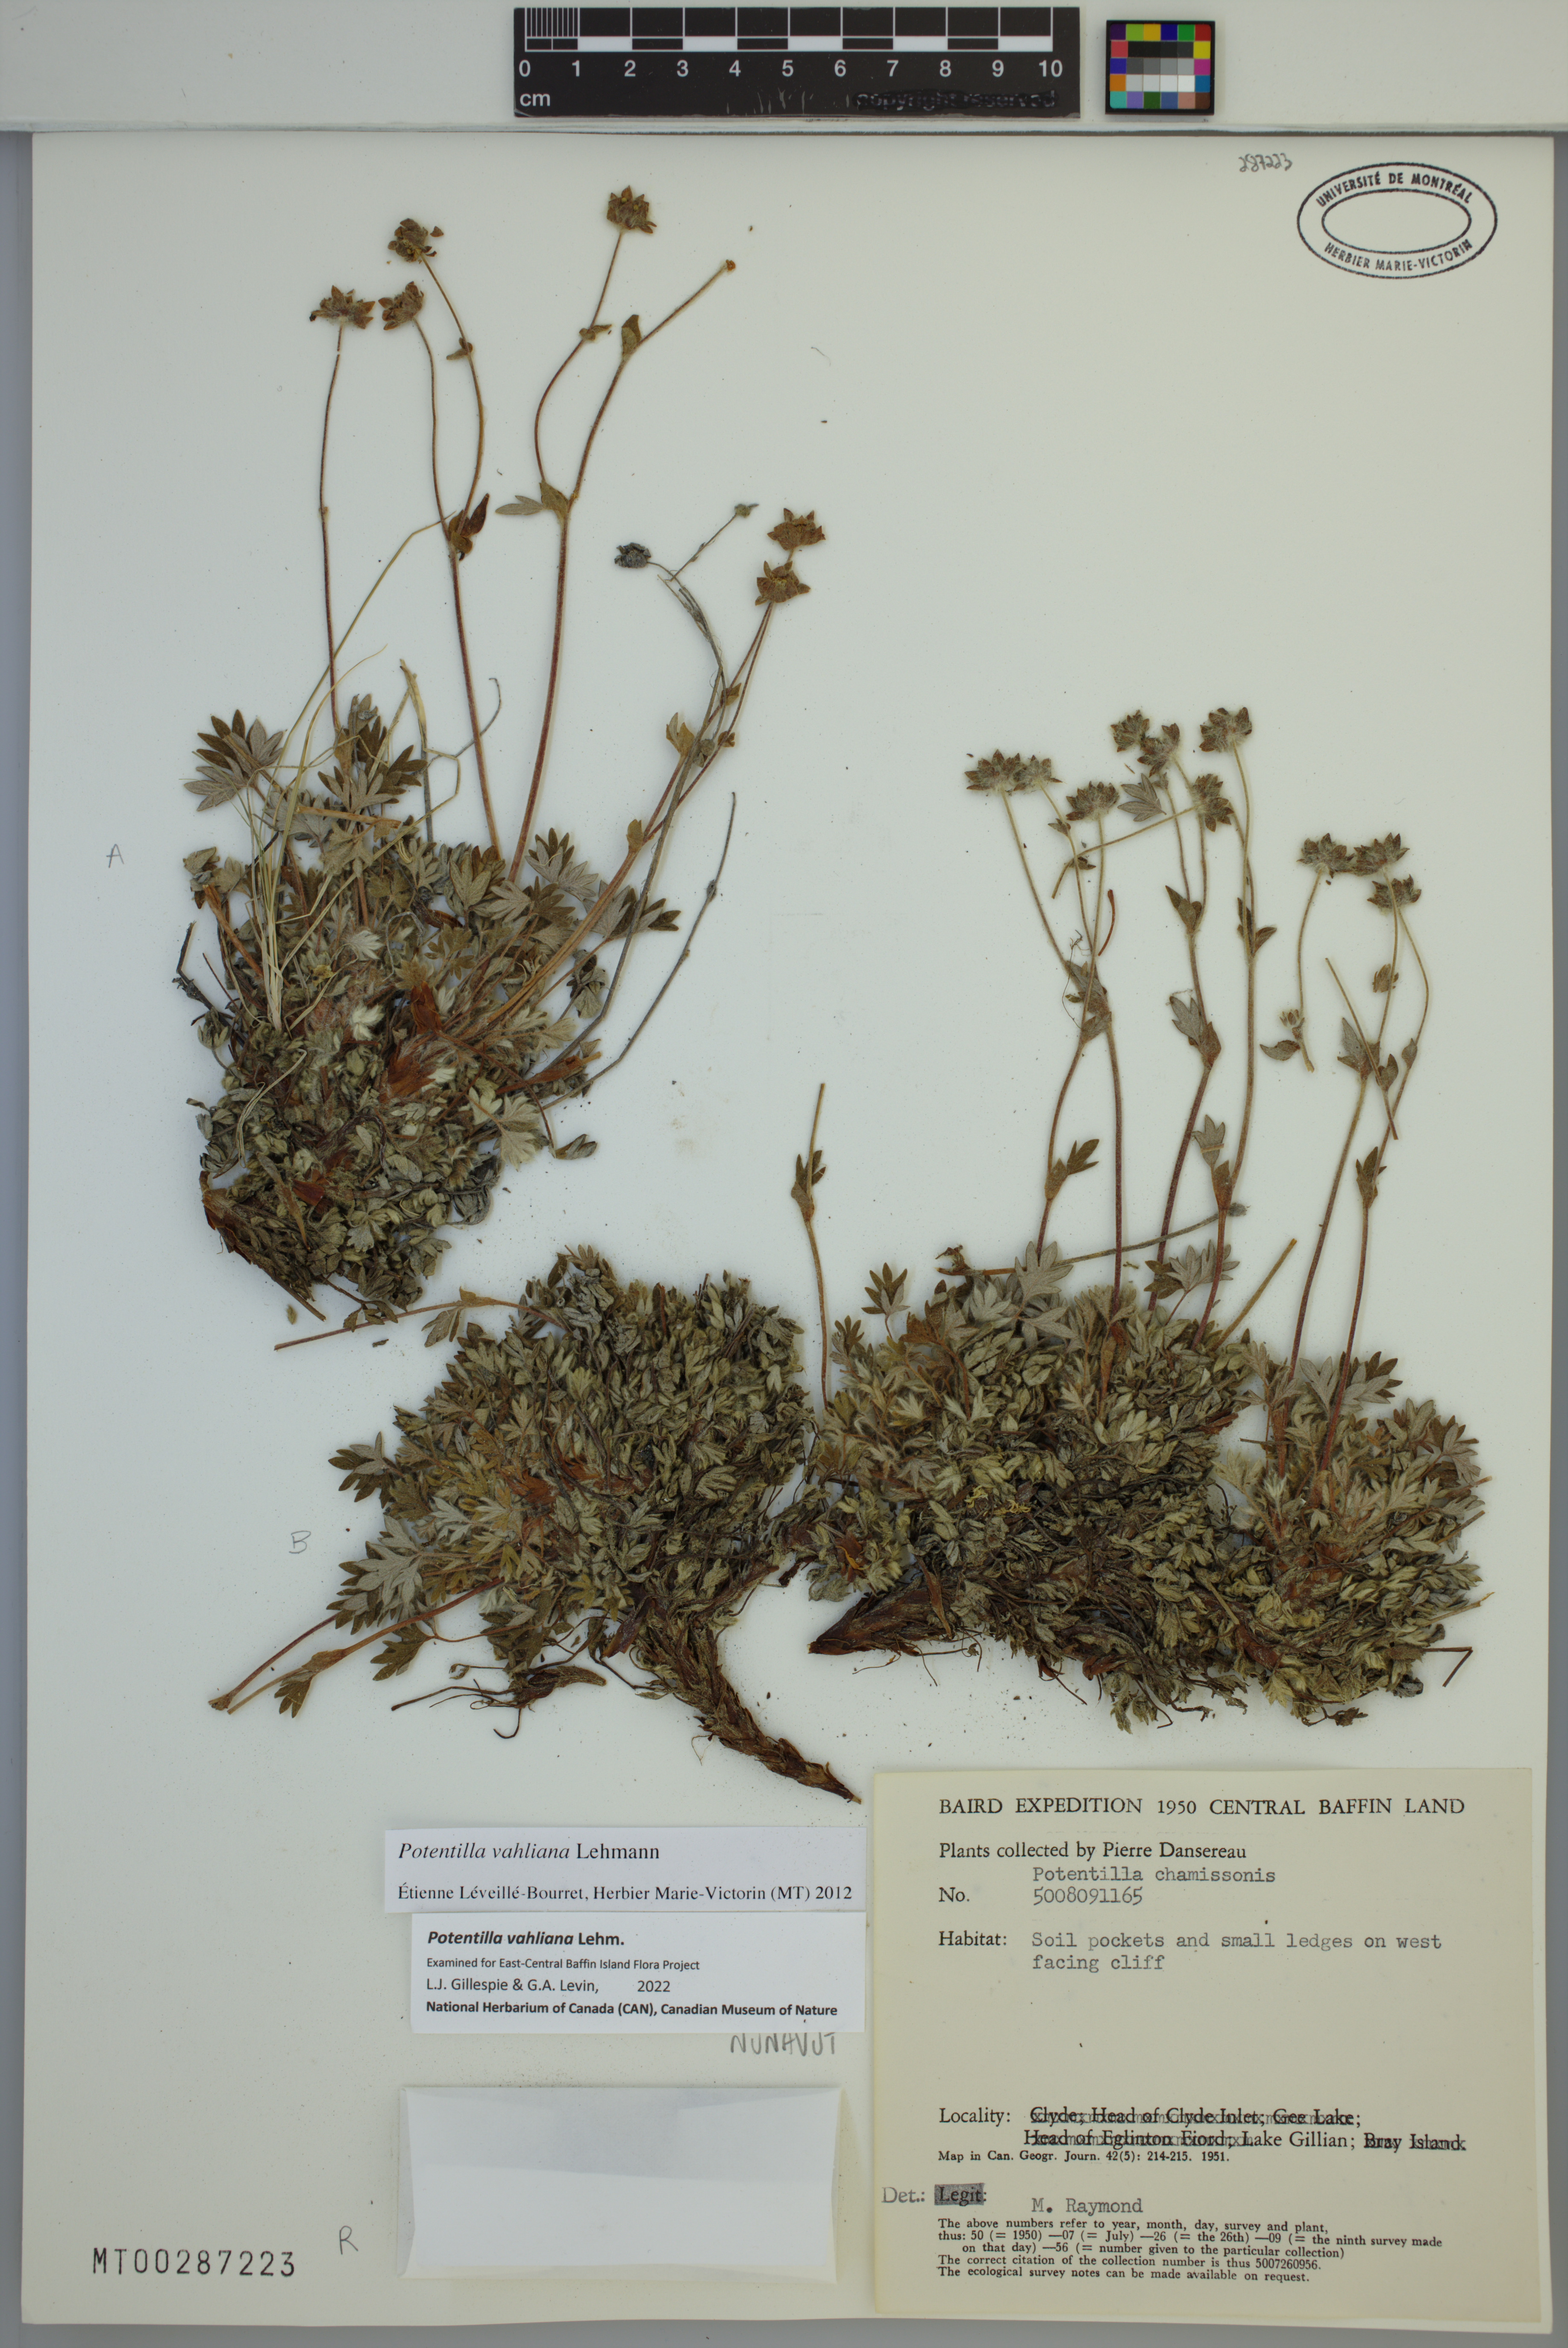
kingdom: Plantae
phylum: Tracheophyta
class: Magnoliopsida
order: Rosales
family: Rosaceae
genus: Potentilla
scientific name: Potentilla vahliana
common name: Vahl's cinquefoil
